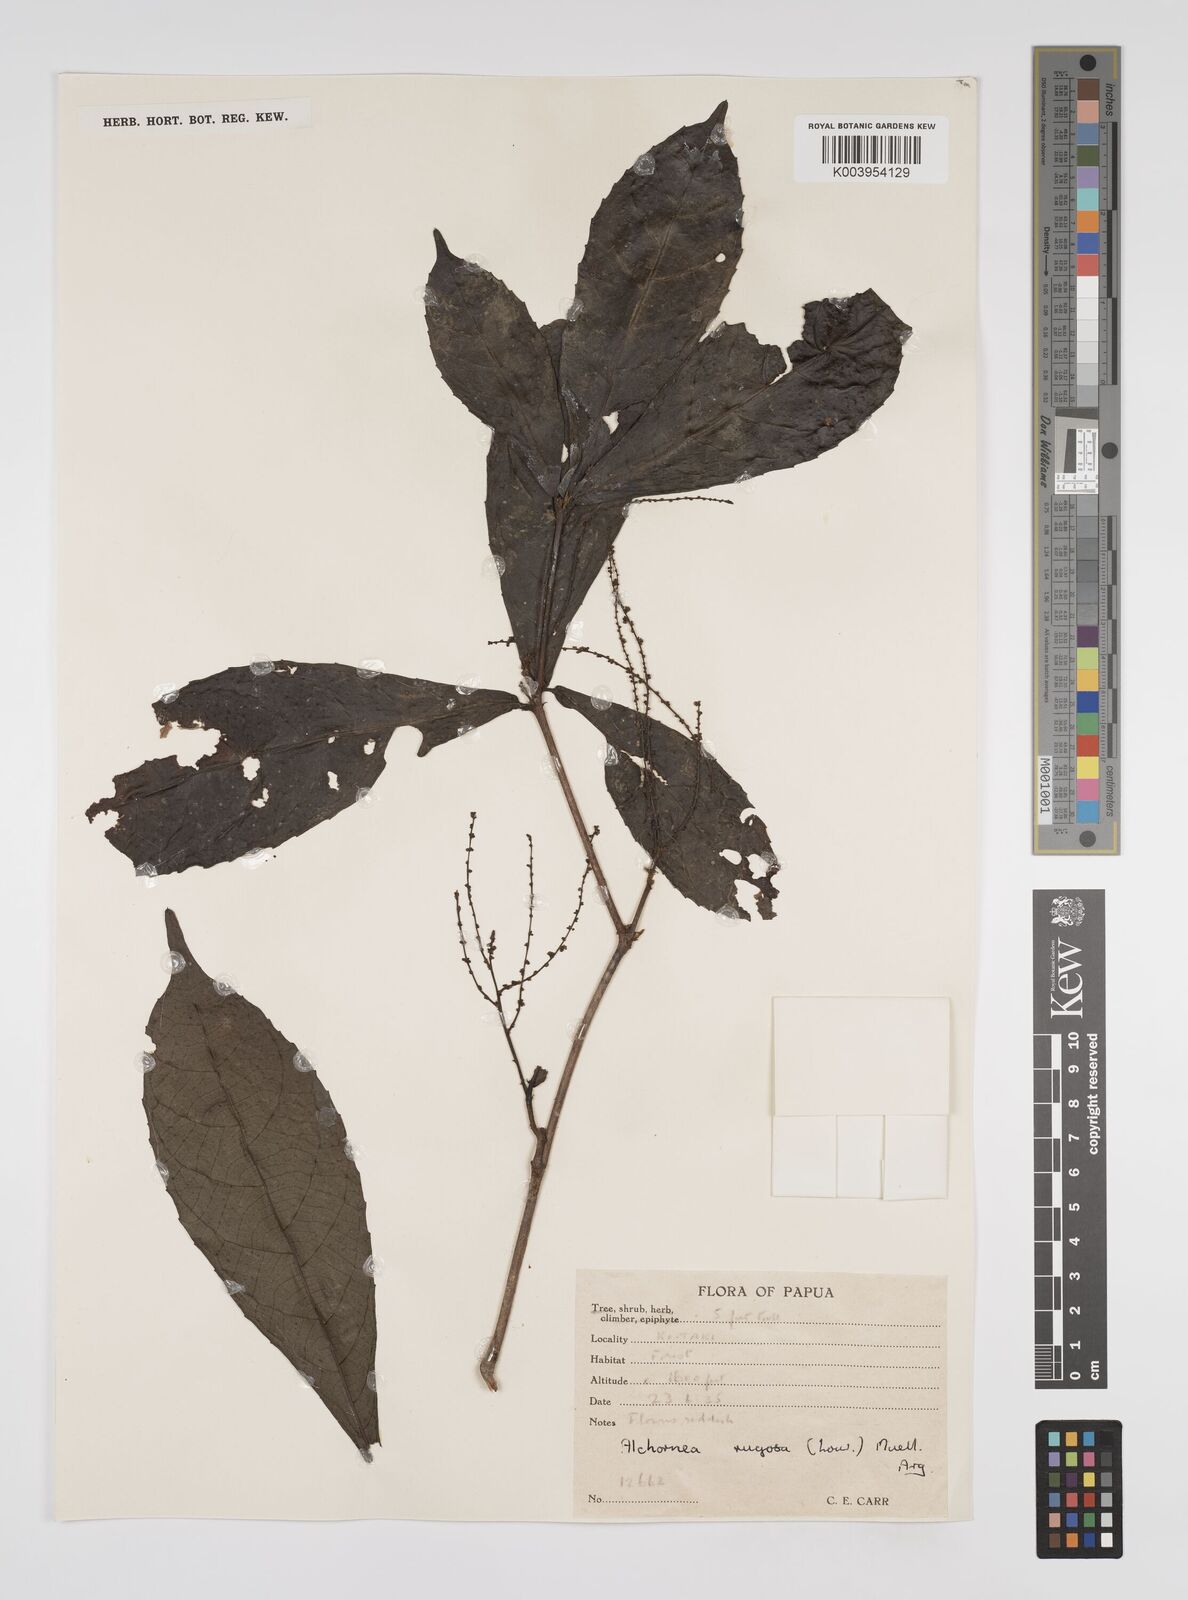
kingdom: Plantae
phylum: Tracheophyta
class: Magnoliopsida
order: Malpighiales
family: Euphorbiaceae
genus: Alchornea
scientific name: Alchornea rugosa
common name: Alchorntree
